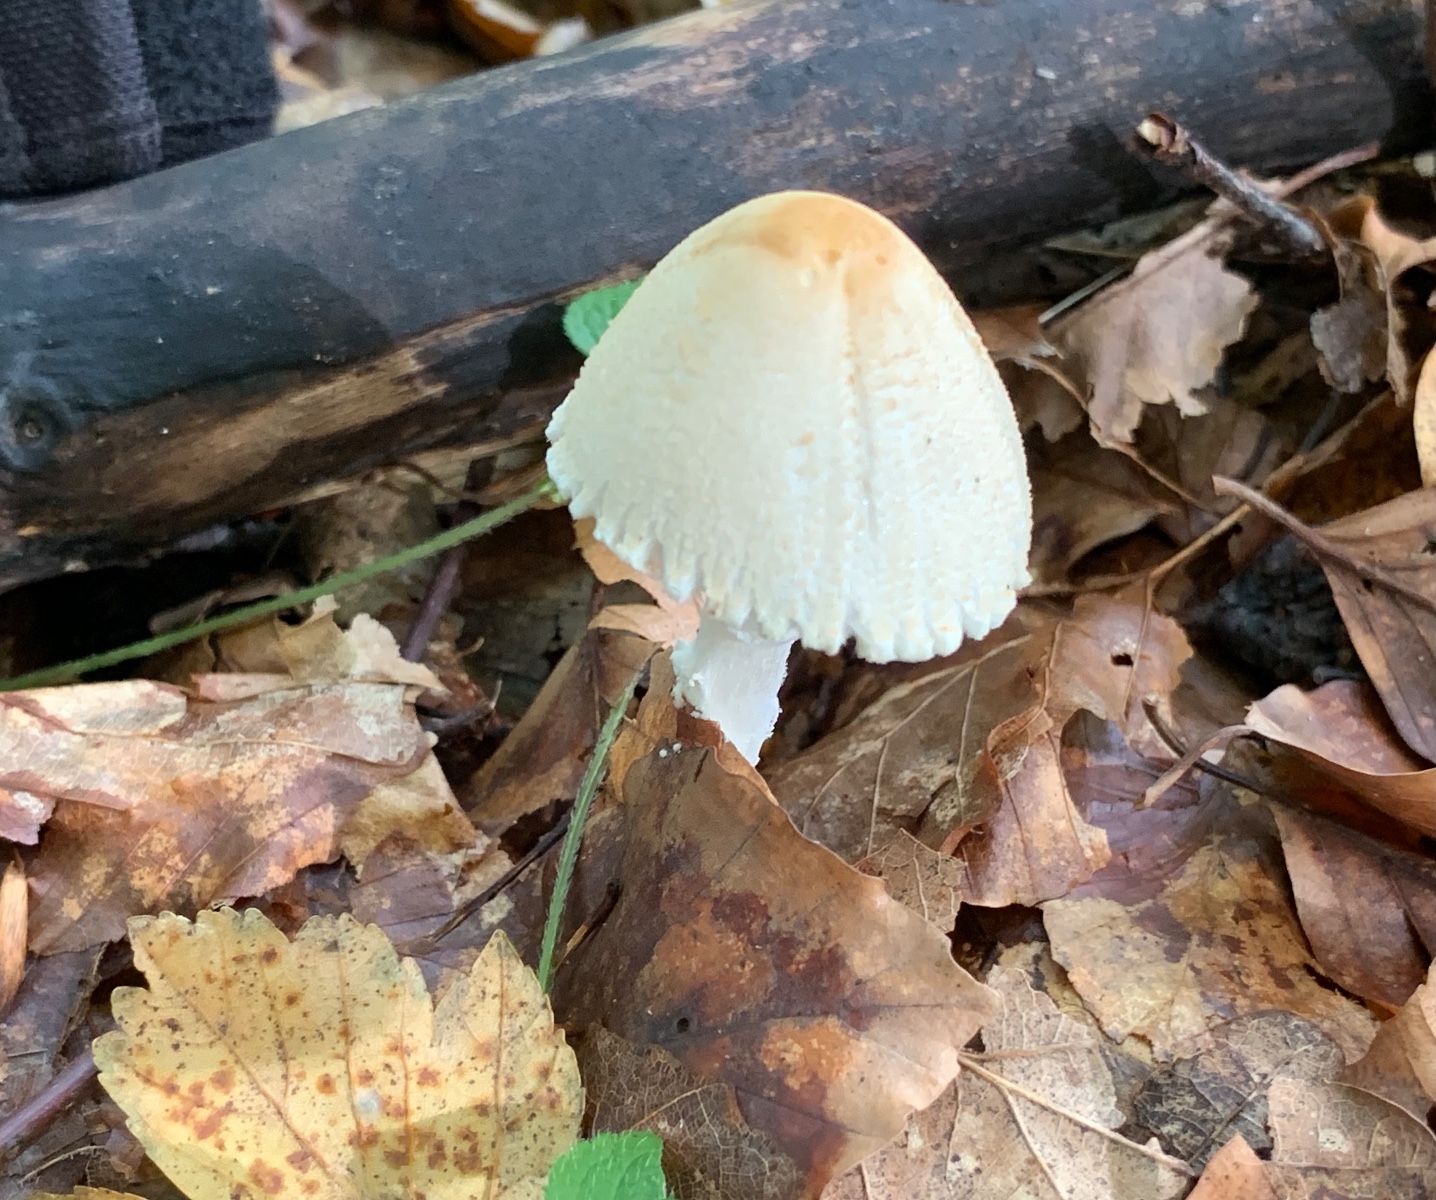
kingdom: Fungi
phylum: Basidiomycota
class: Agaricomycetes
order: Agaricales
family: Agaricaceae
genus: Lepiota
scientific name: Lepiota clypeolaria
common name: flosset parasolhat
